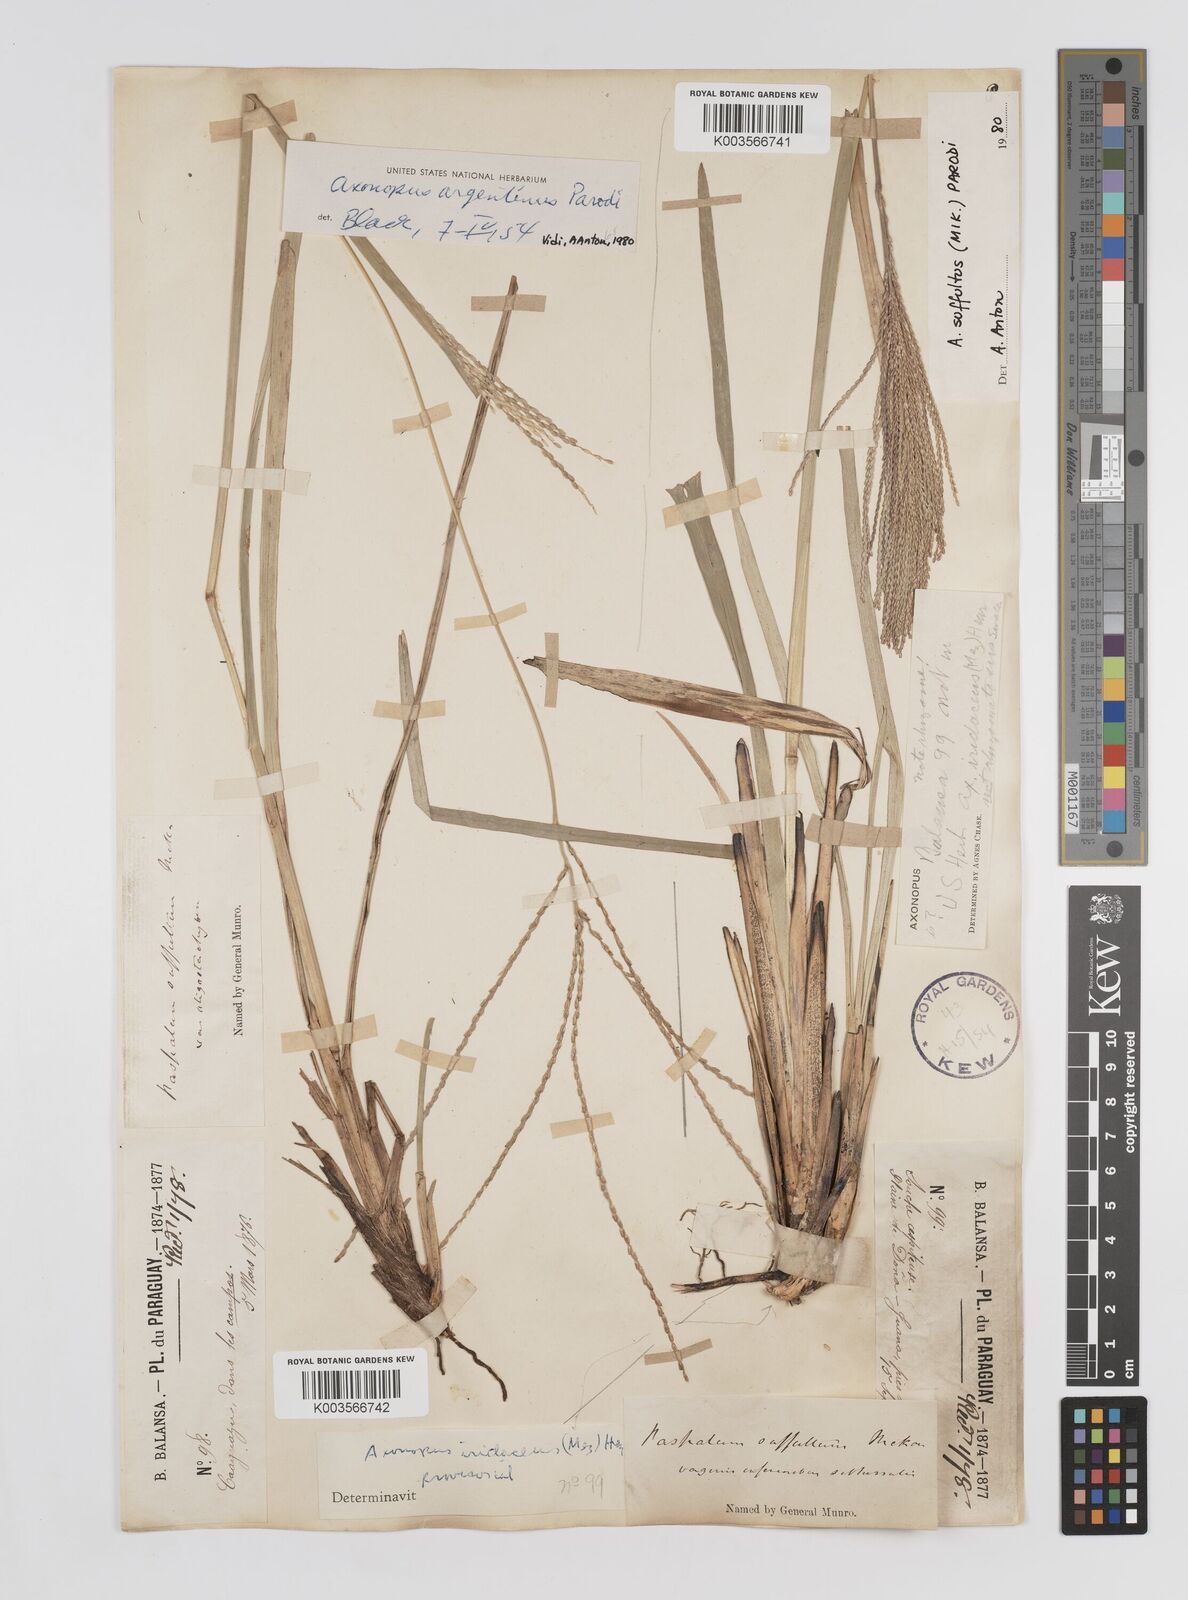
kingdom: Plantae
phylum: Tracheophyta
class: Liliopsida
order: Poales
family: Poaceae
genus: Axonopus
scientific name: Axonopus argentinus
